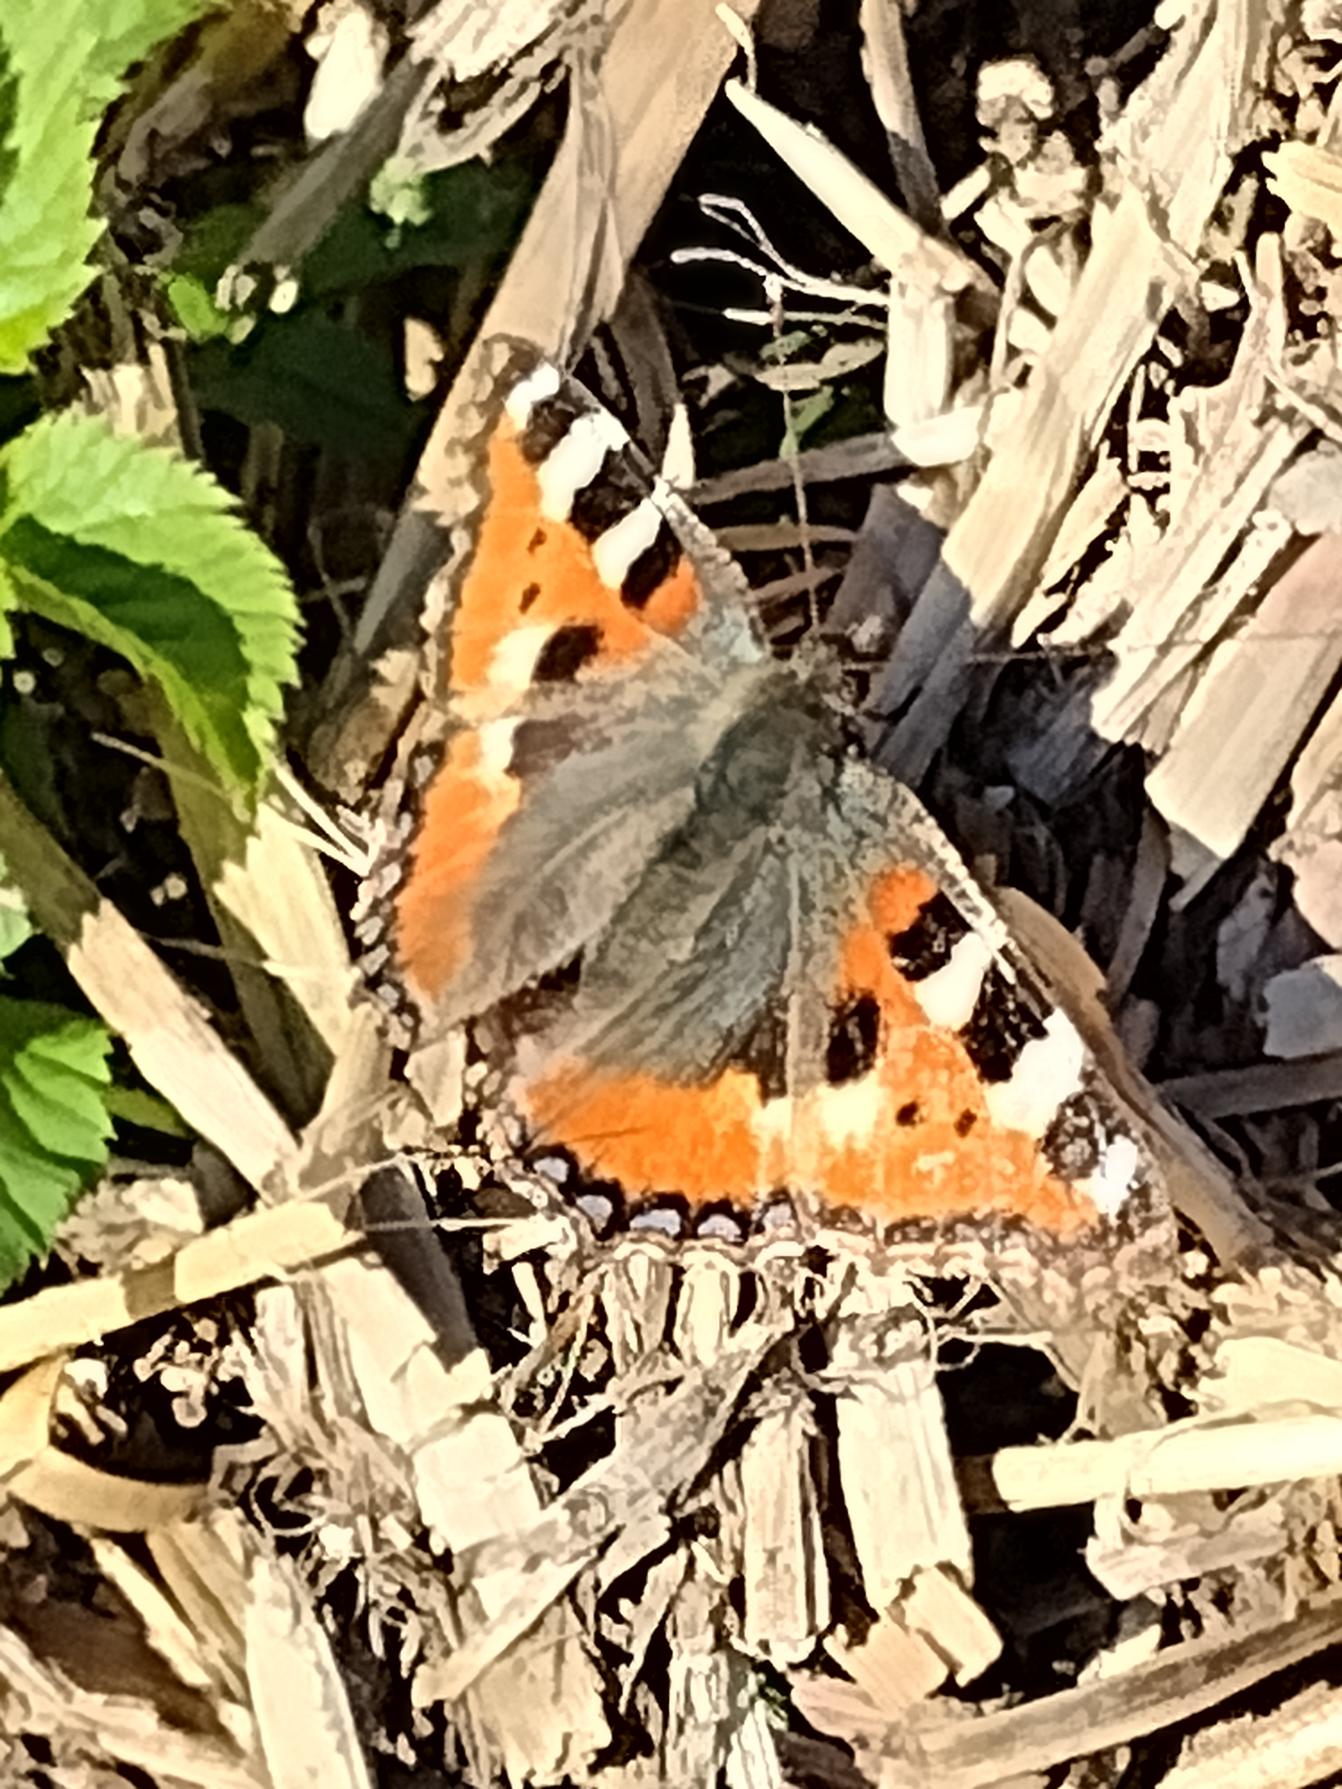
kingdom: Animalia
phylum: Arthropoda
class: Insecta
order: Lepidoptera
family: Nymphalidae
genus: Aglais
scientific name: Aglais urticae
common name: Nældens takvinge
